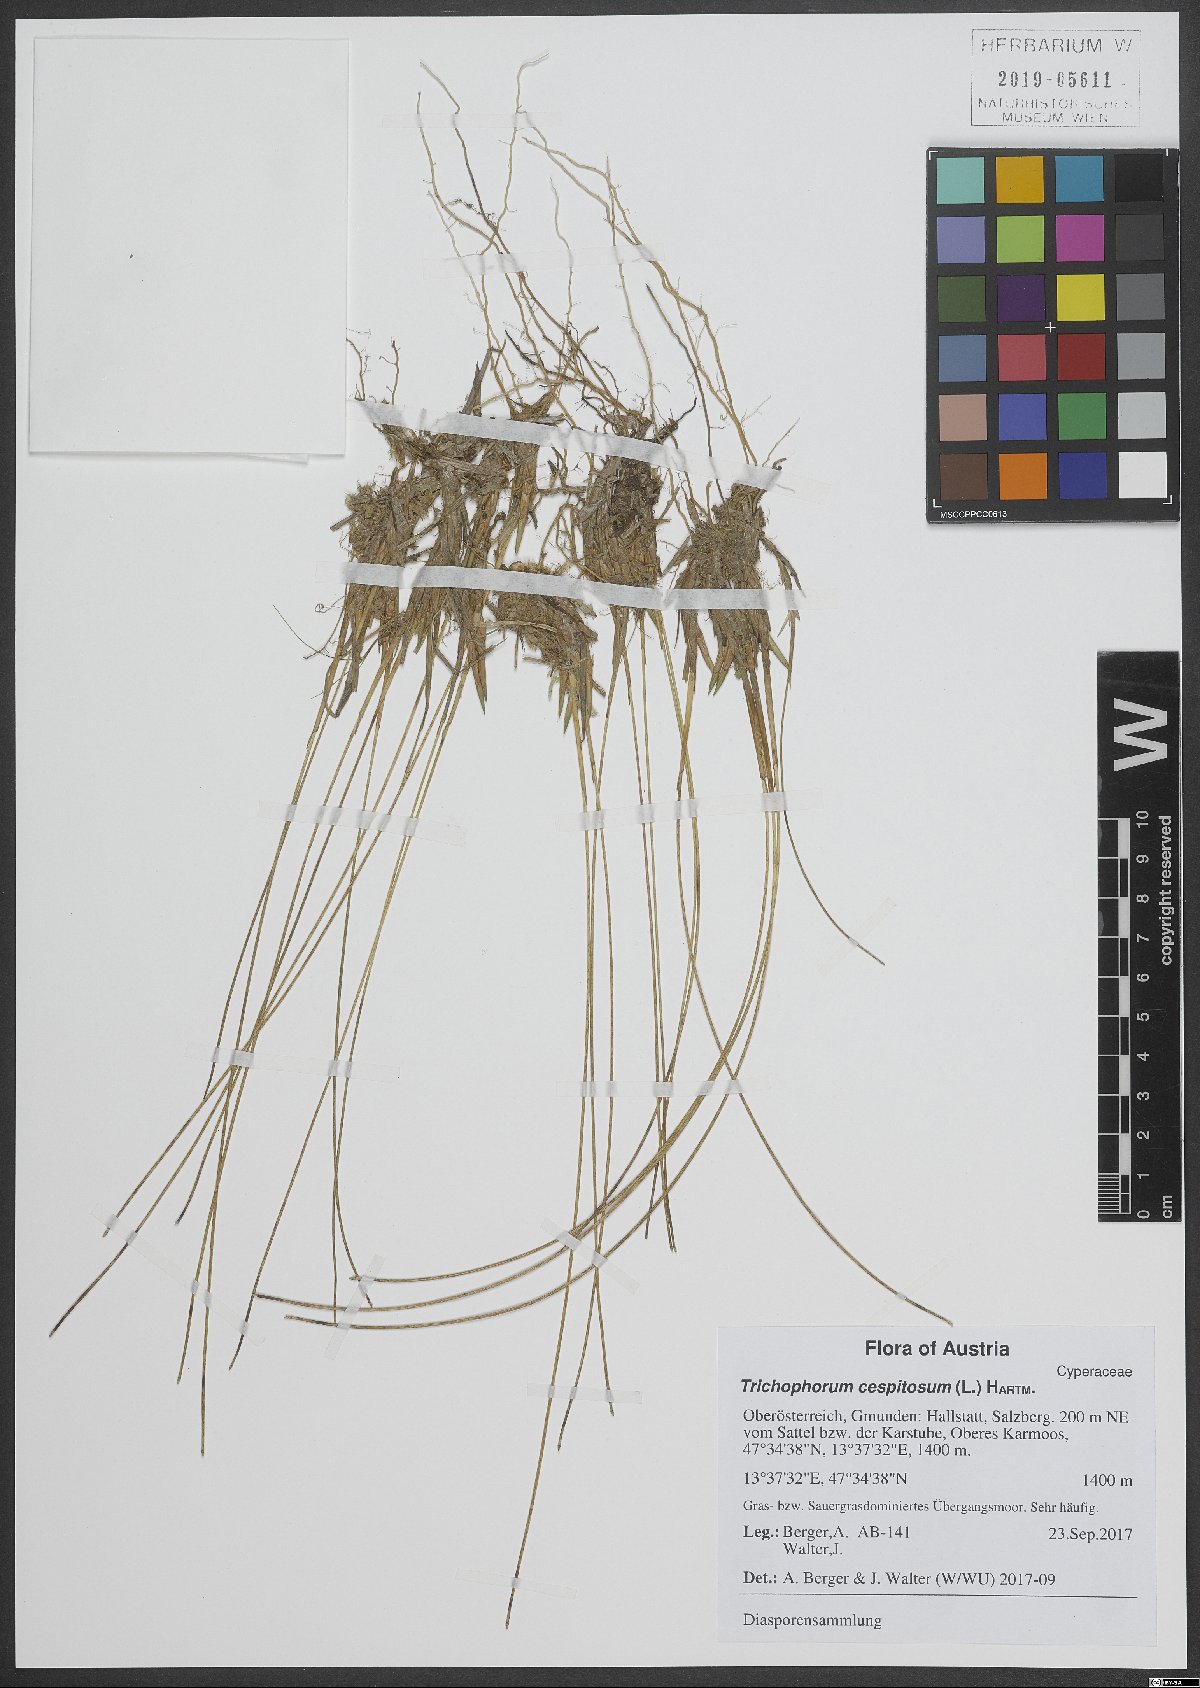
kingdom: Plantae
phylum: Tracheophyta
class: Liliopsida
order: Poales
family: Cyperaceae
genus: Trichophorum
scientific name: Trichophorum cespitosum
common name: Cespitose bulrush
